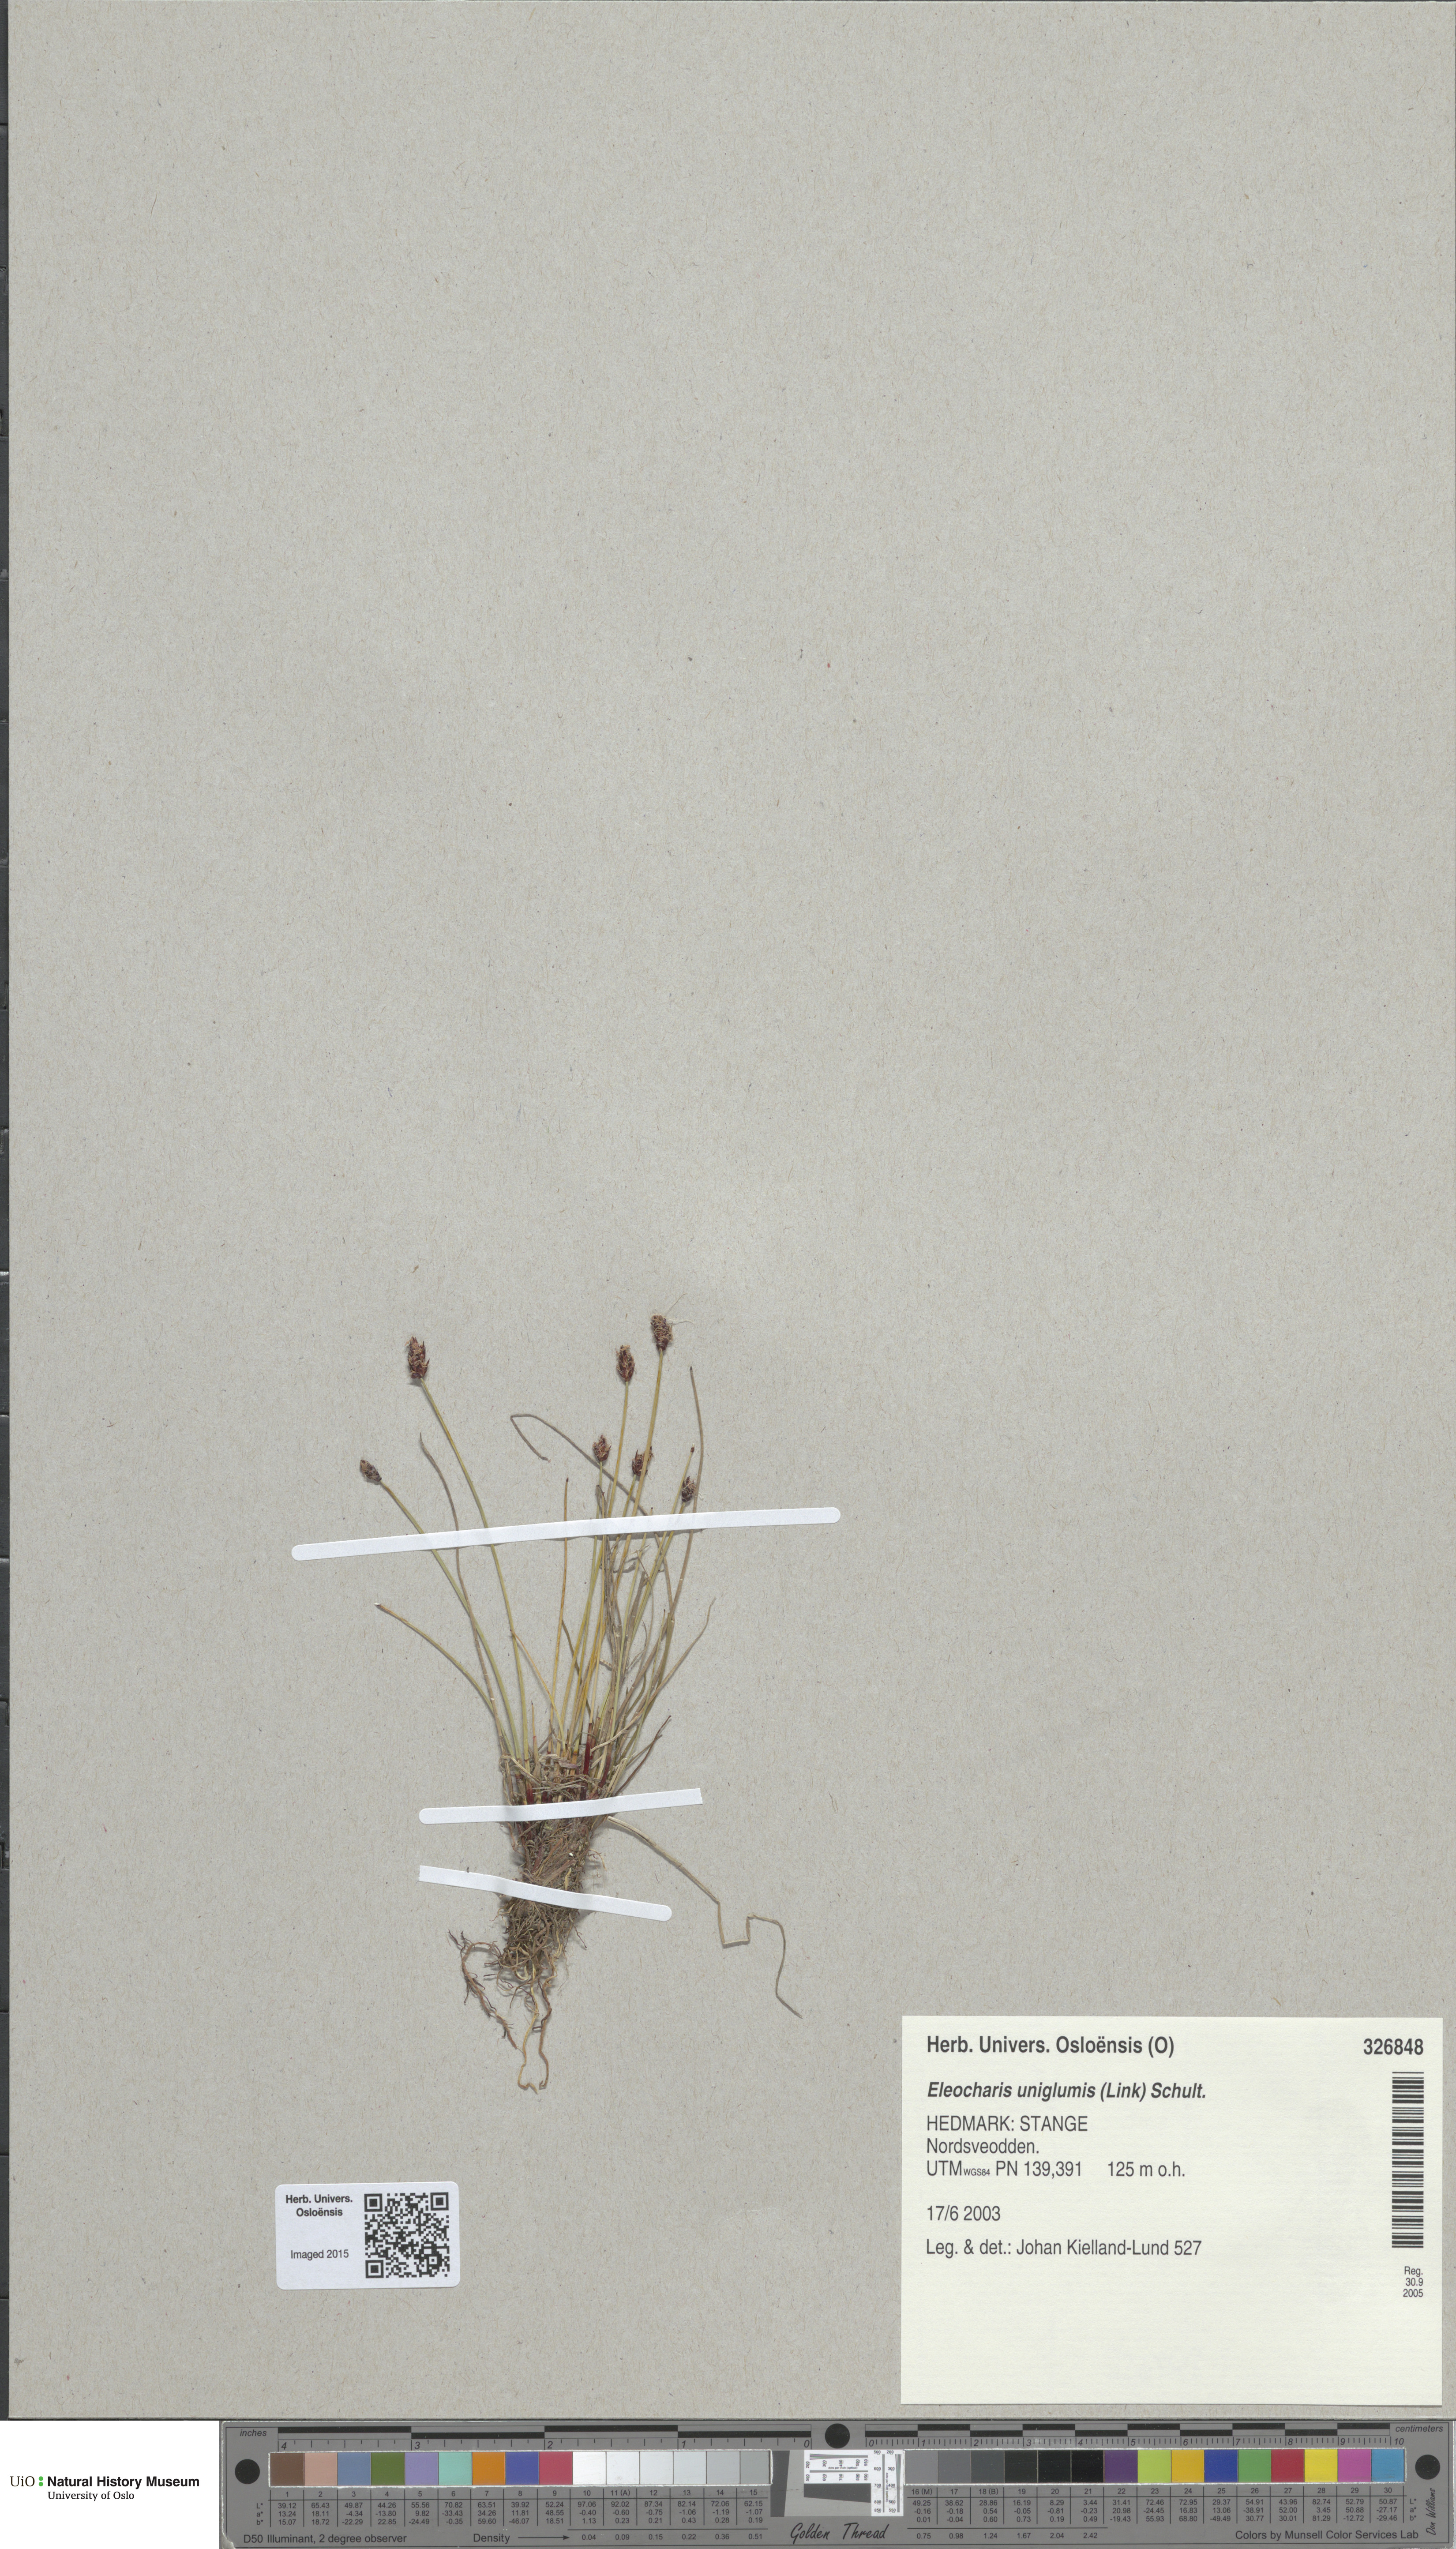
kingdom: Plantae
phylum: Tracheophyta
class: Liliopsida
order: Poales
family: Cyperaceae
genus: Eleocharis
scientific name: Eleocharis uniglumis
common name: Slender spike-rush
